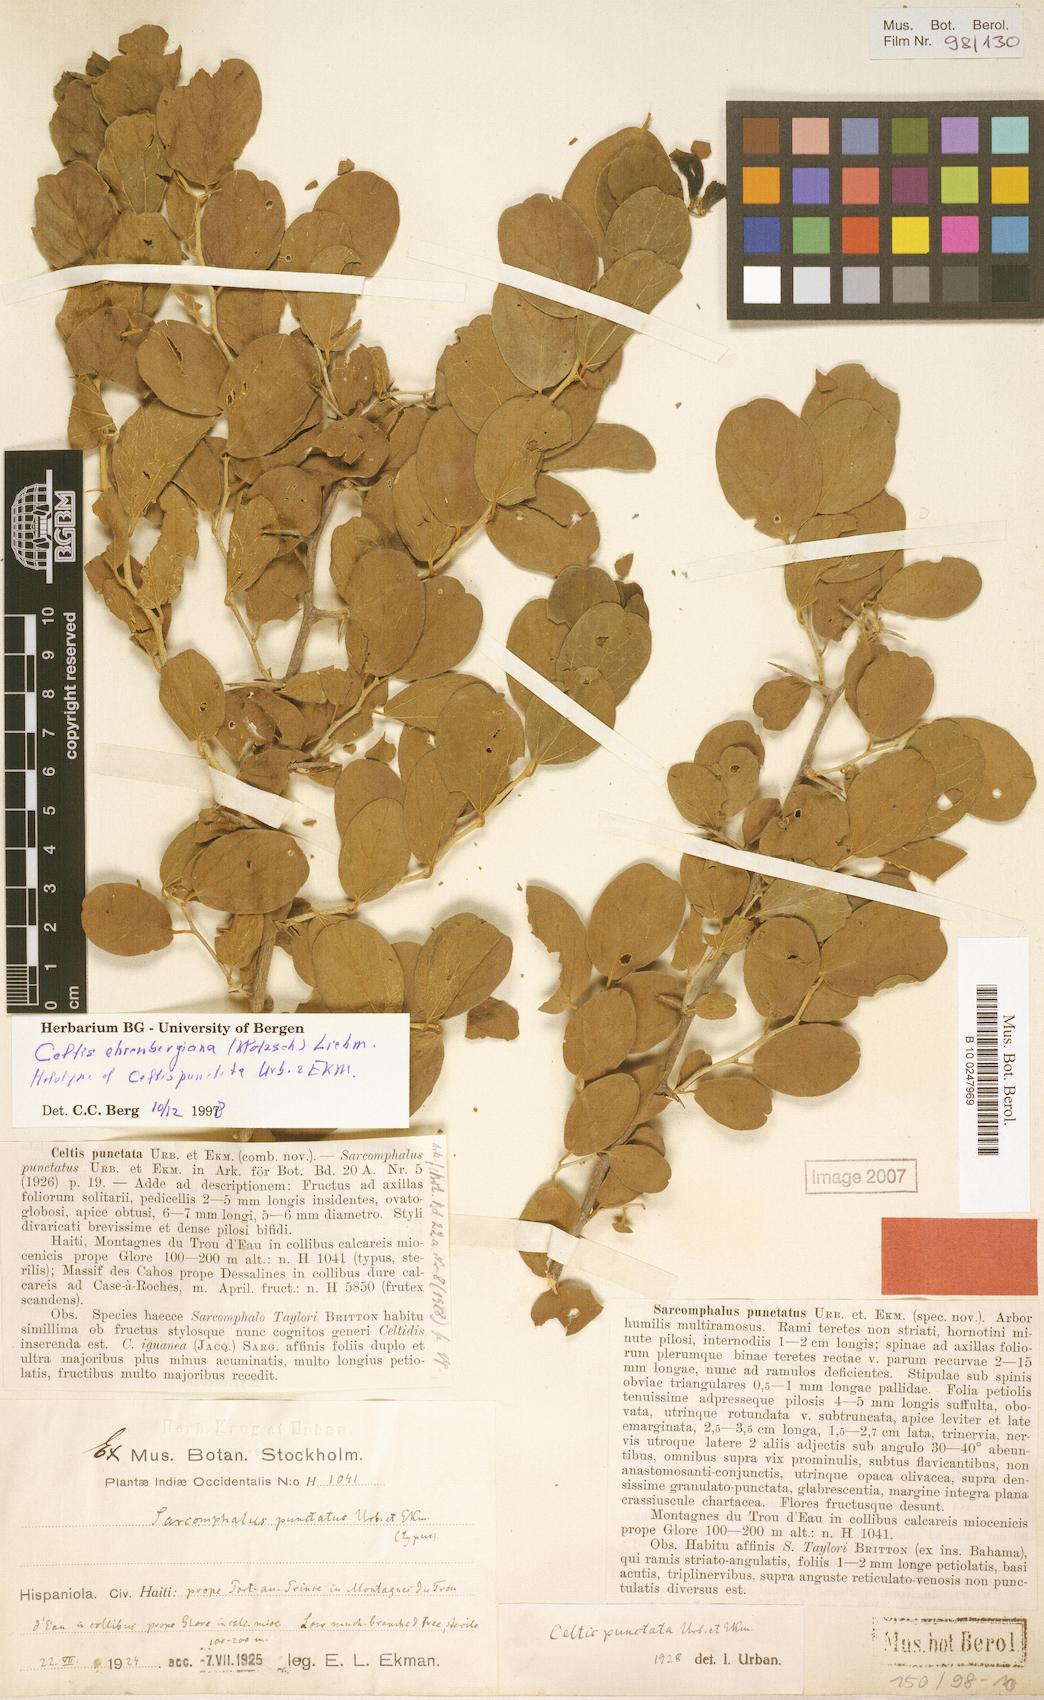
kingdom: Plantae
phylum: Tracheophyta
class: Magnoliopsida
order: Rosales
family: Cannabaceae
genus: Celtis
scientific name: Celtis iguanaea
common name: Iguana hackberry
